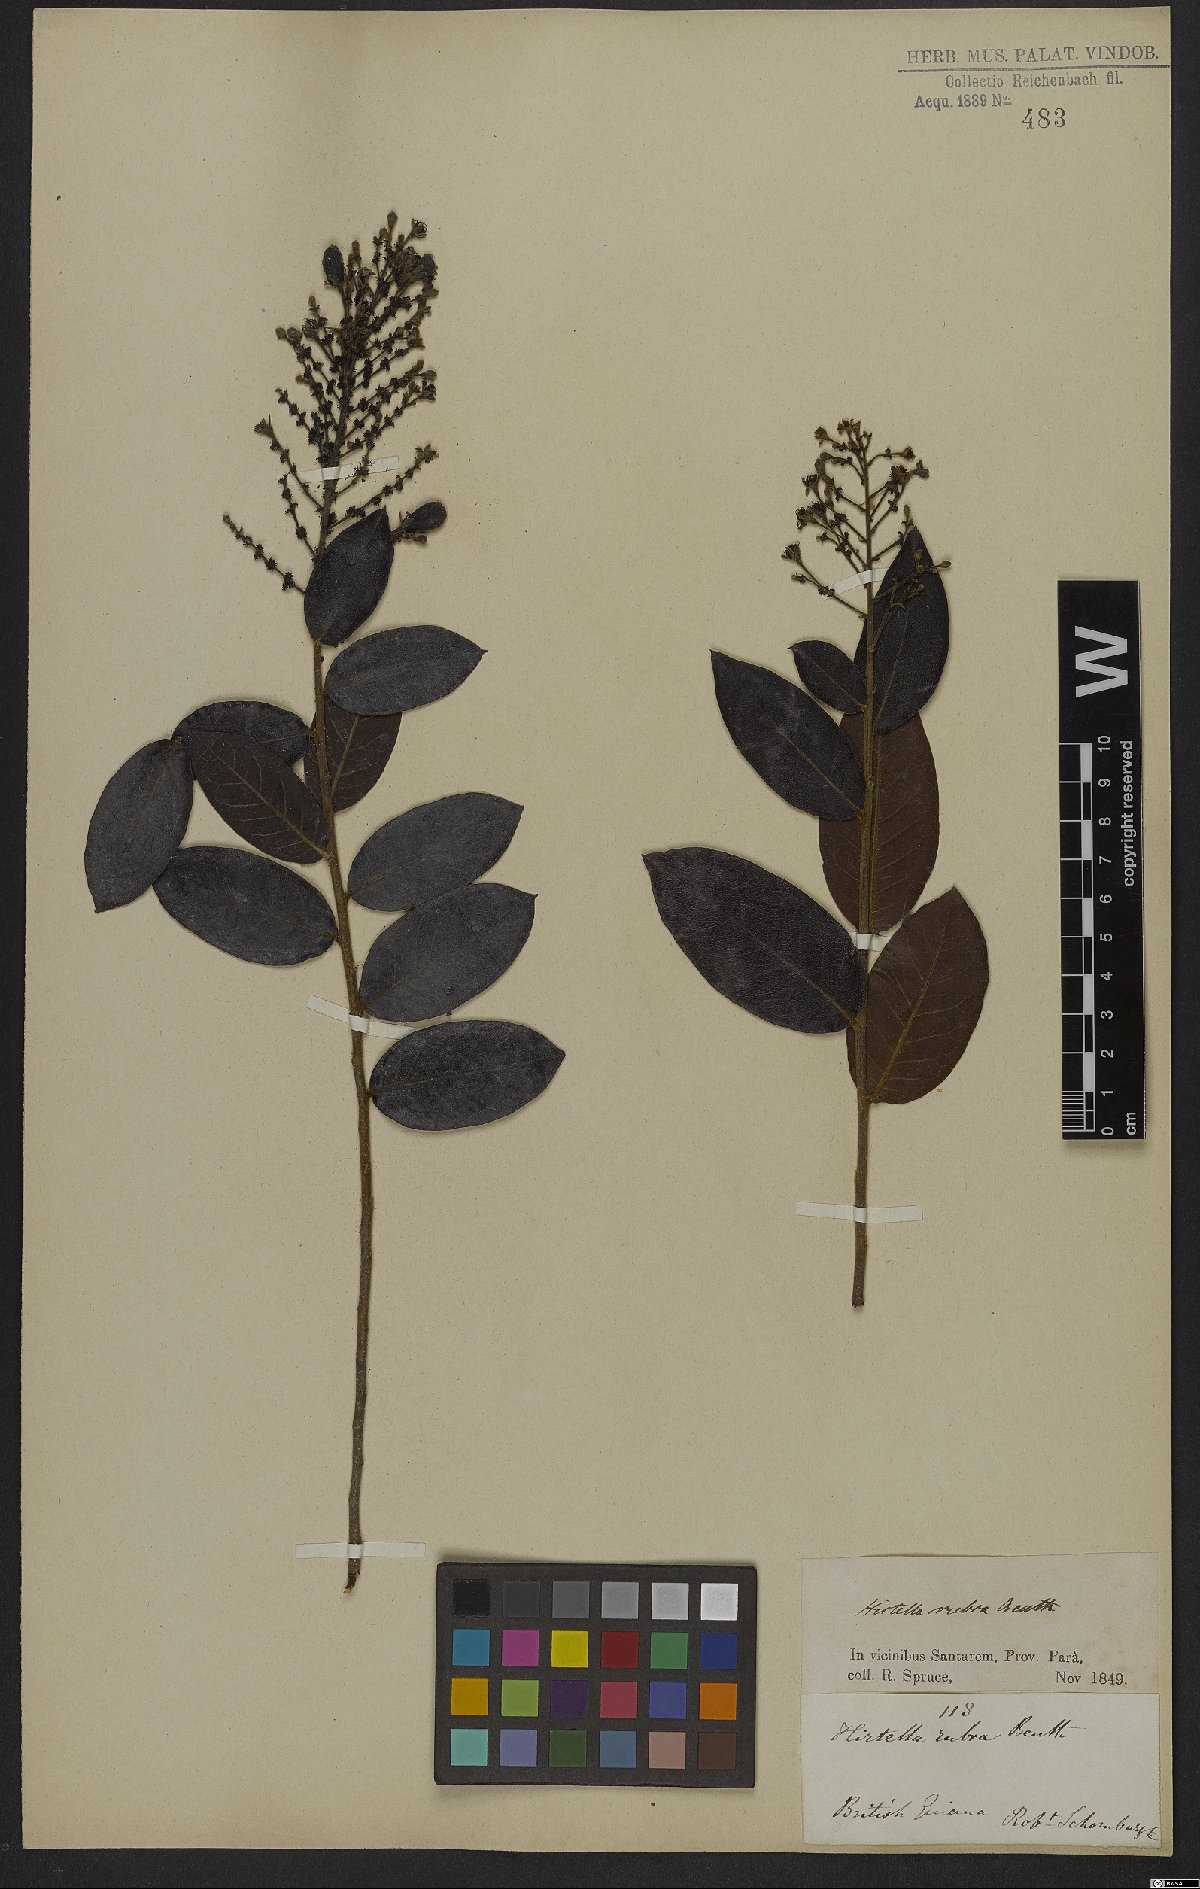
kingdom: Plantae
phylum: Tracheophyta
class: Magnoliopsida
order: Malpighiales
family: Chrysobalanaceae
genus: Hirtella
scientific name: Hirtella ciliata
